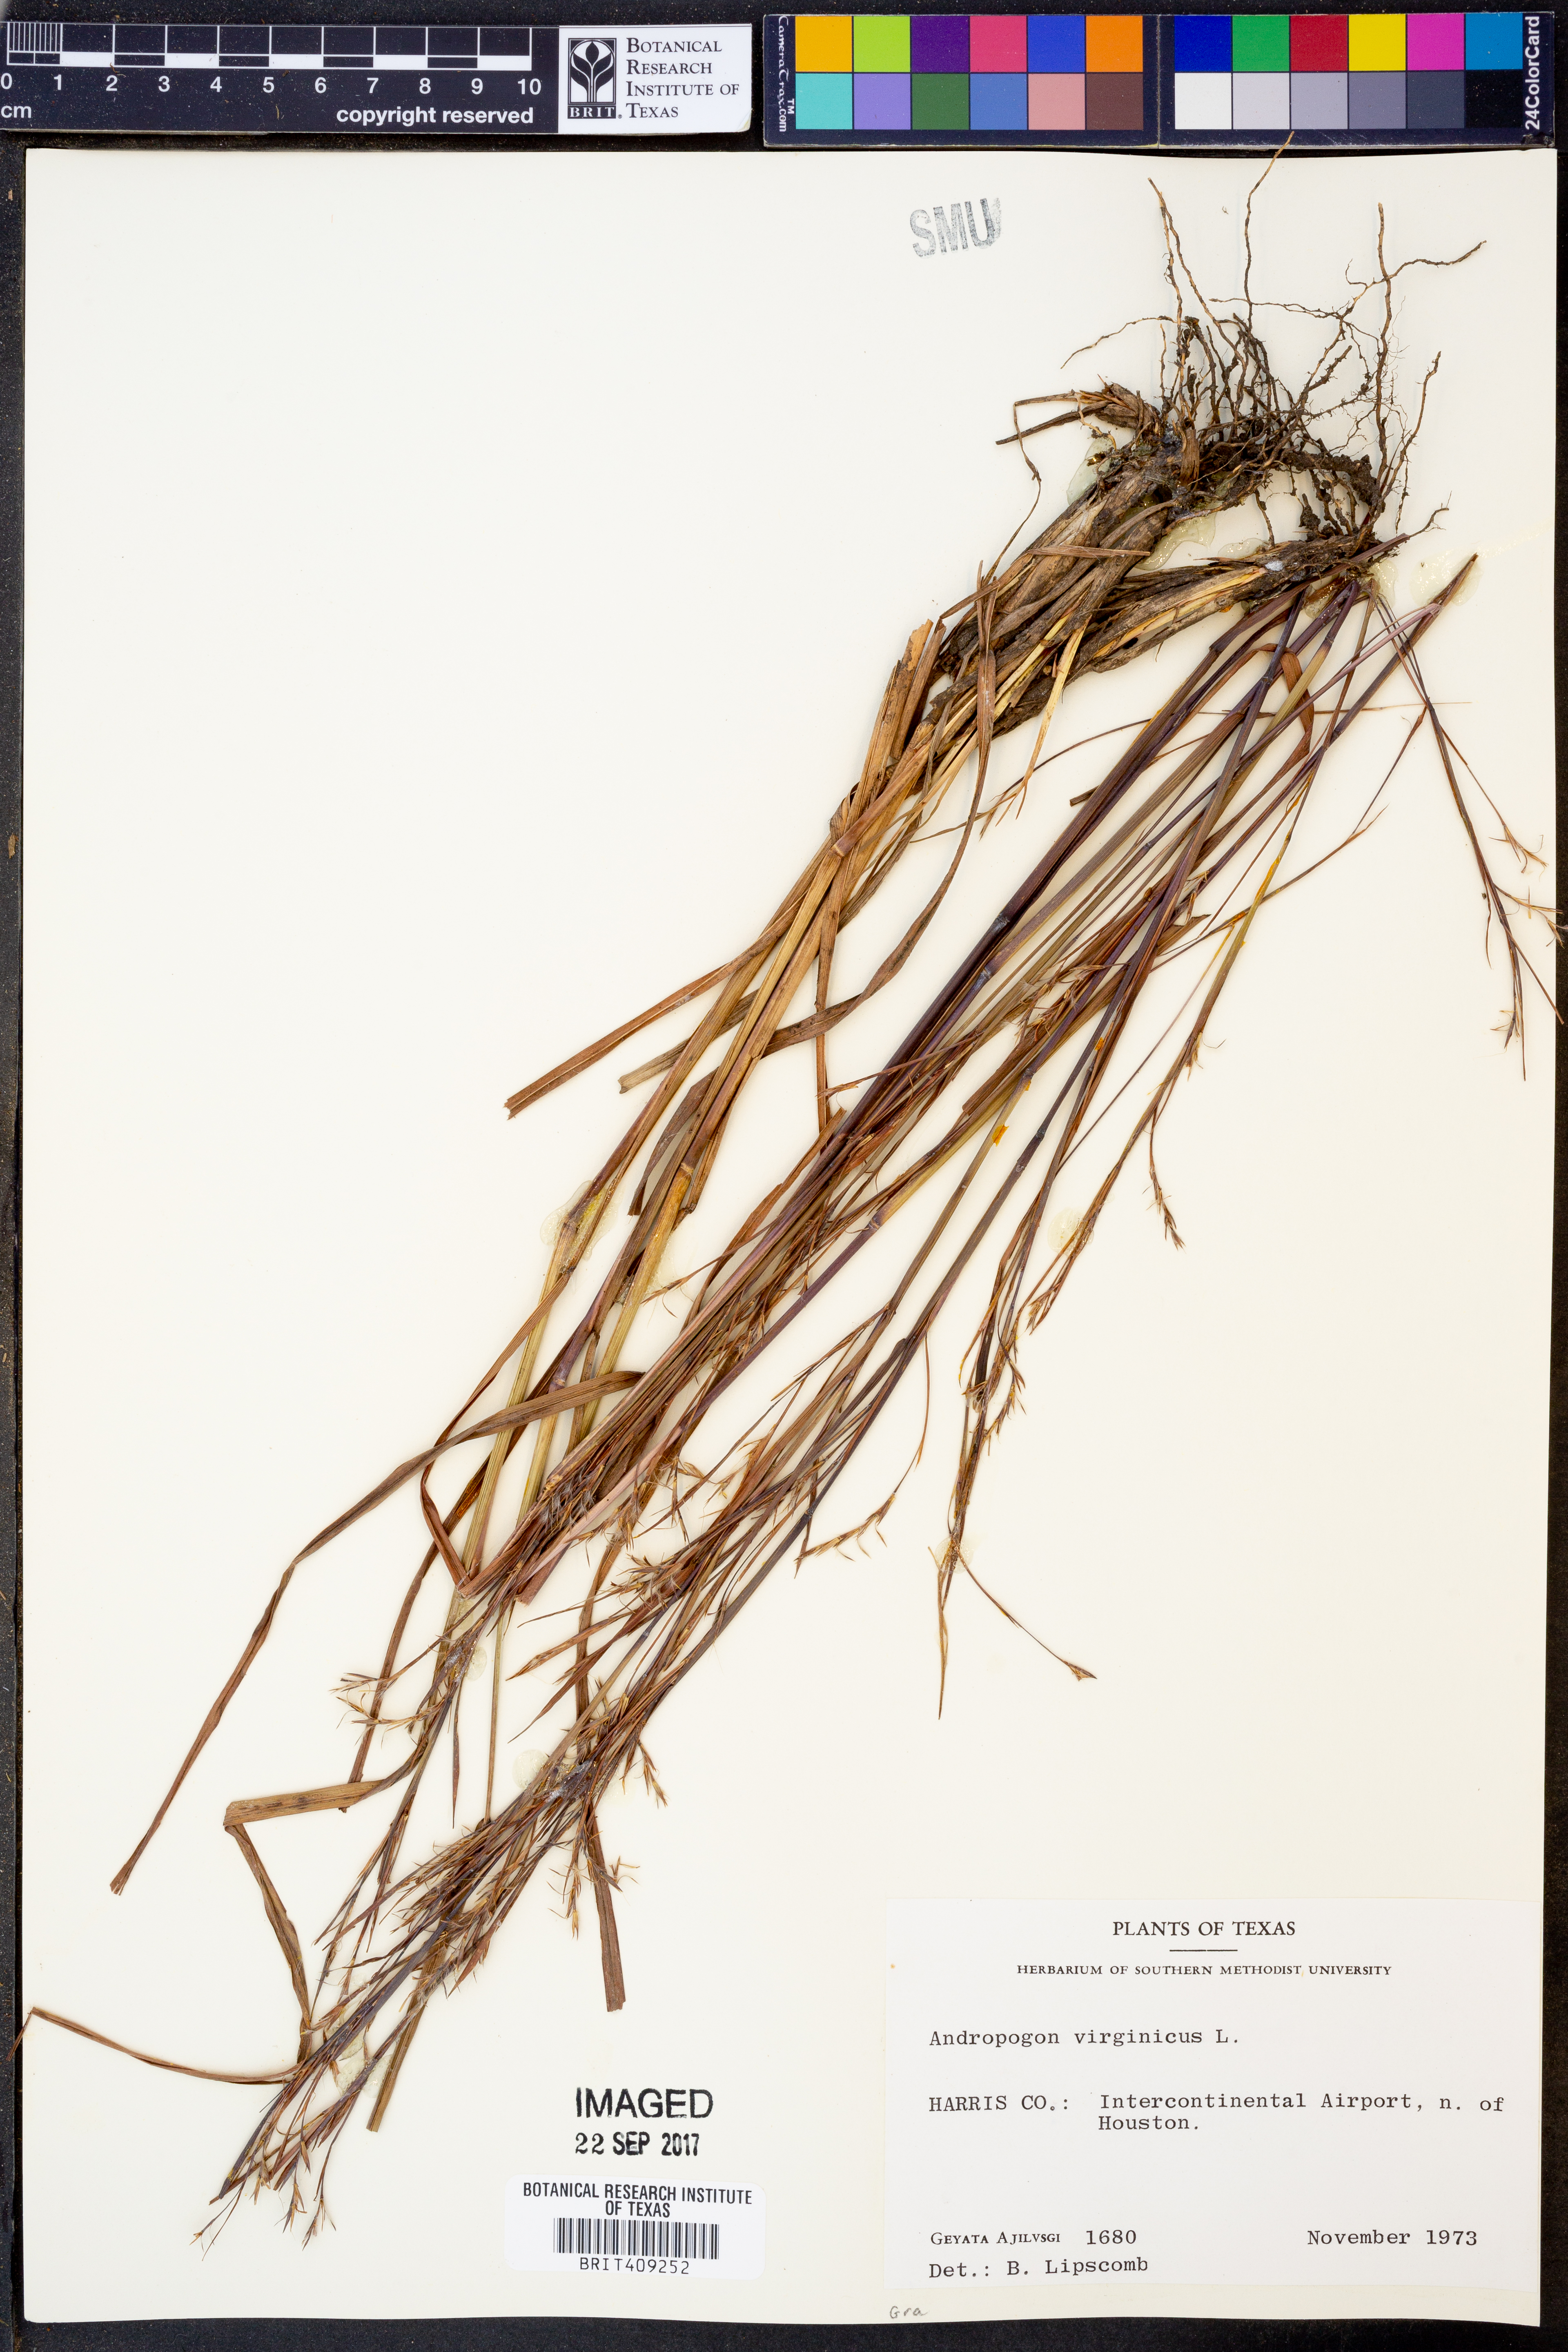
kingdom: Plantae
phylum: Tracheophyta
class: Liliopsida
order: Poales
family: Poaceae
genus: Andropogon
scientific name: Andropogon virginicus
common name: Broomsedge bluestem
